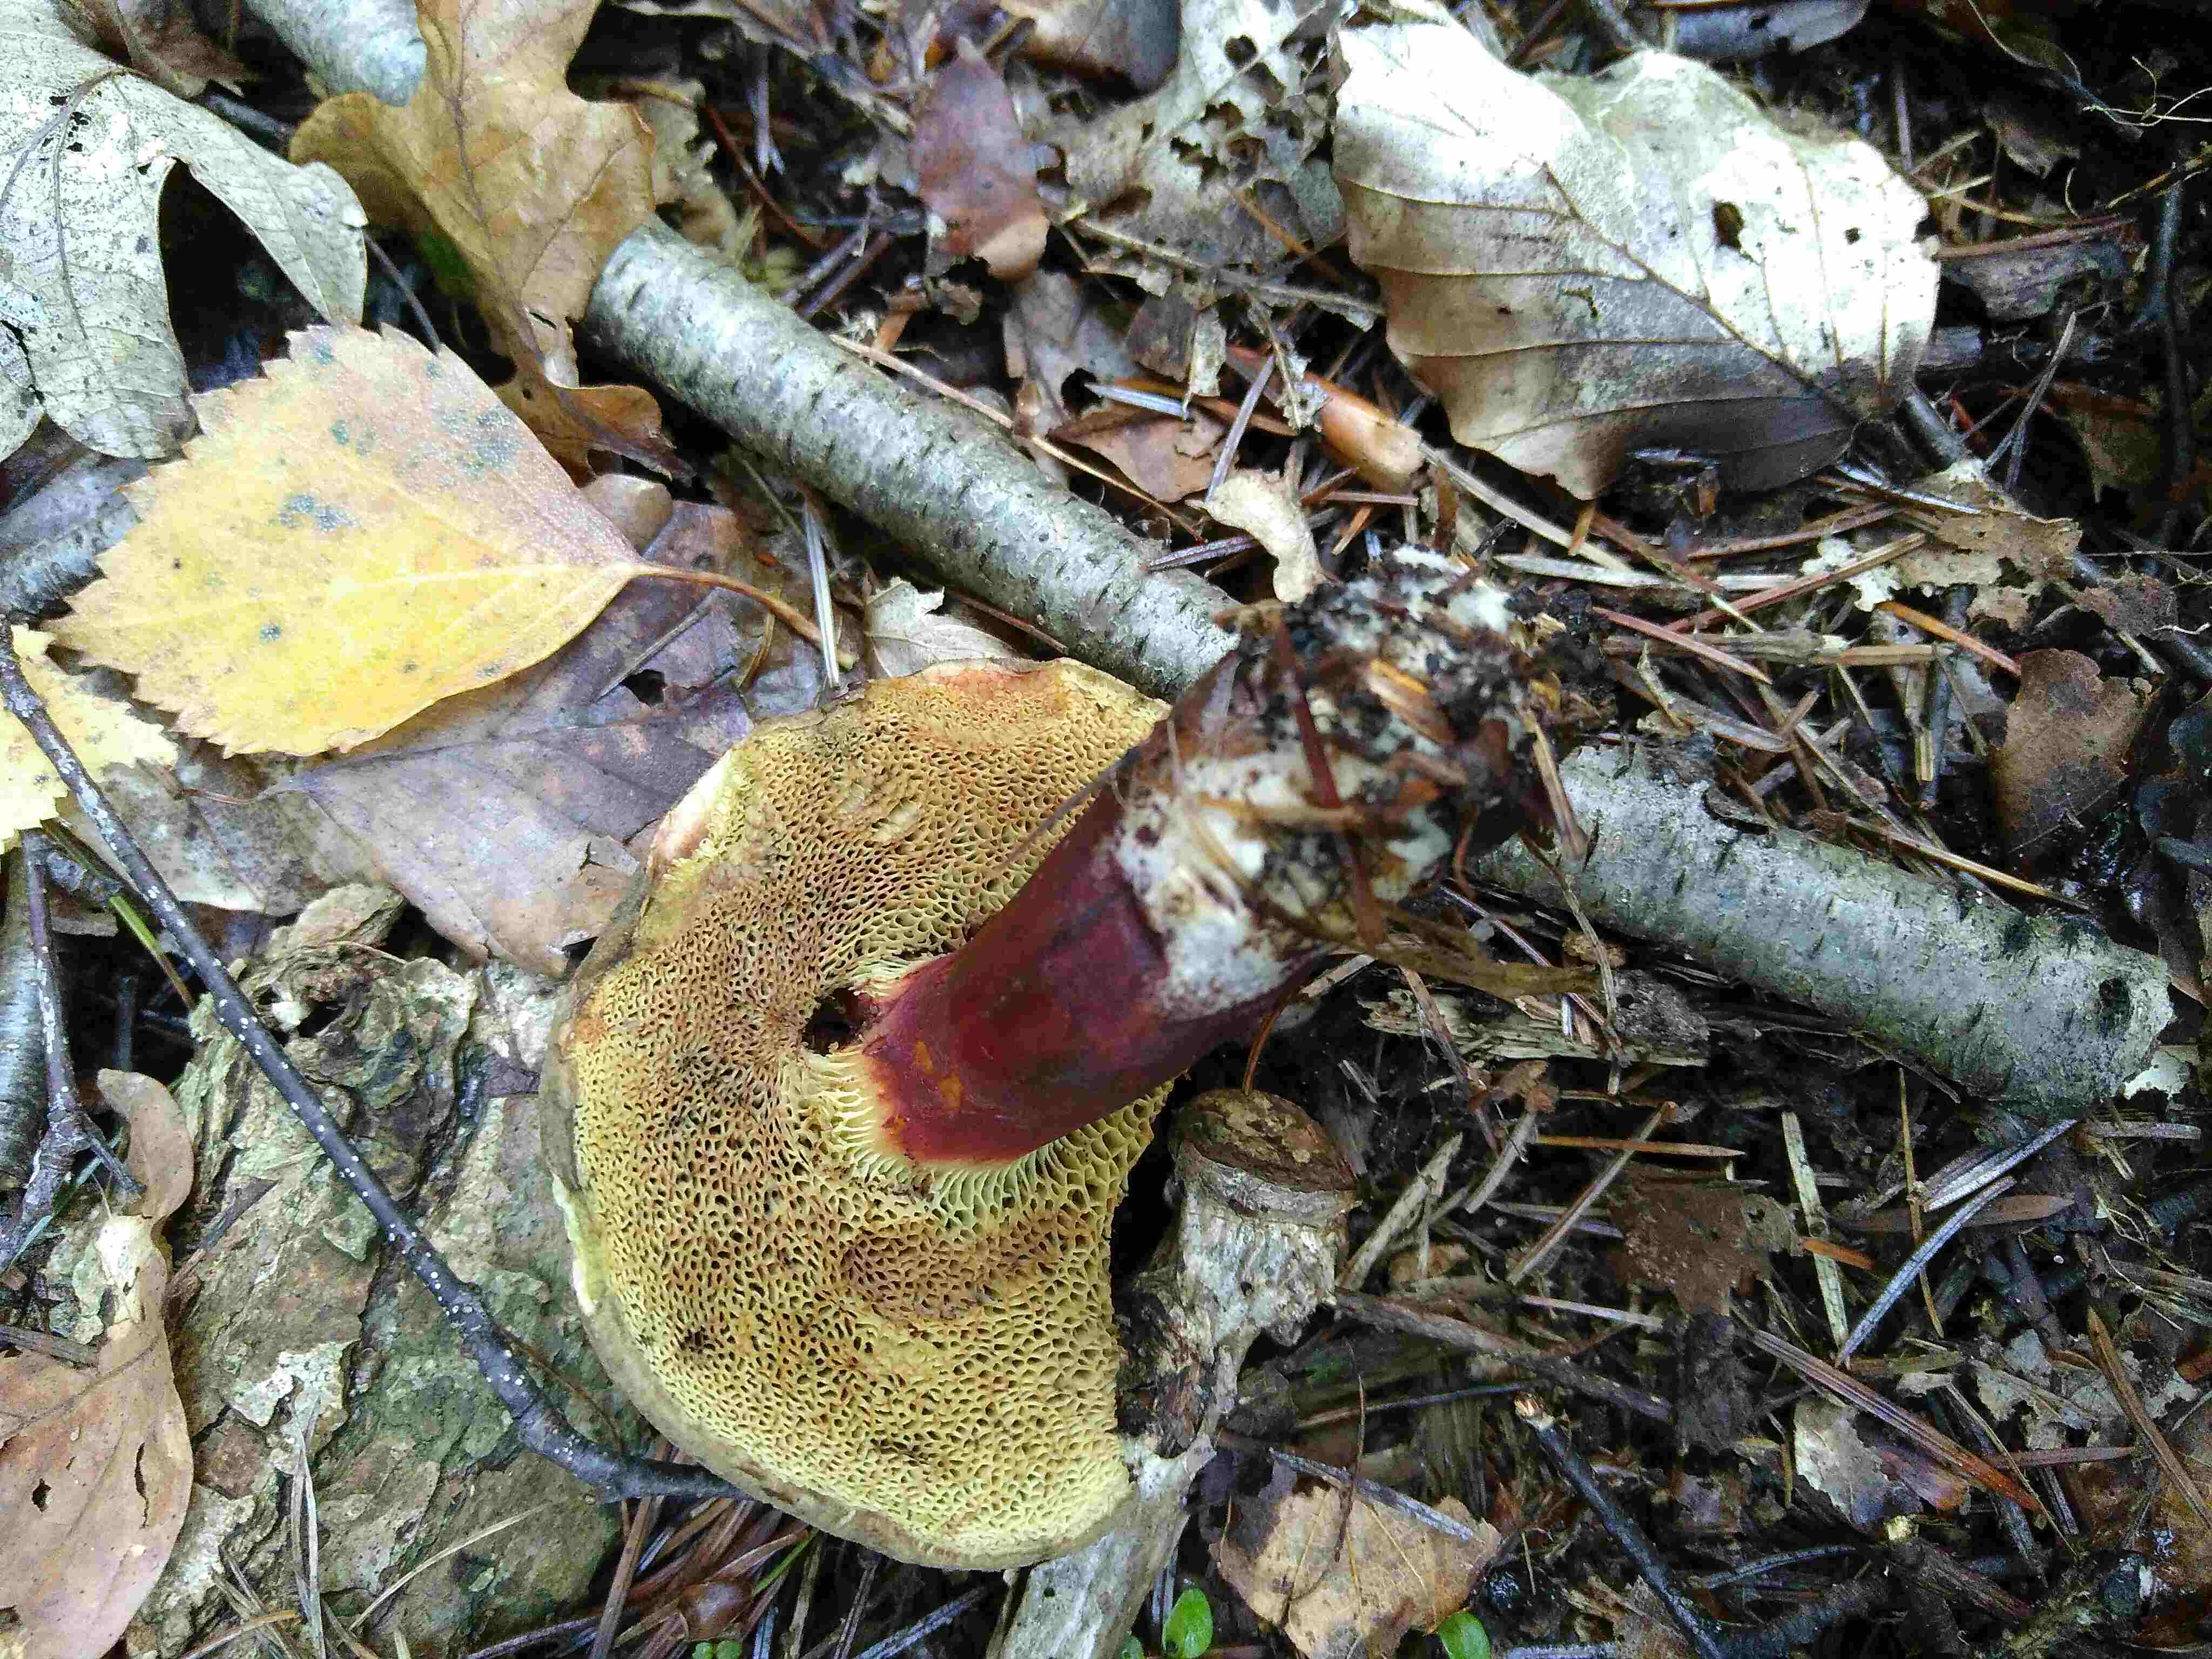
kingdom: Fungi
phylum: Basidiomycota
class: Agaricomycetes
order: Boletales
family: Boletaceae
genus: Xerocomellus
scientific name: Xerocomellus pruinatus
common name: dugget rørhat
